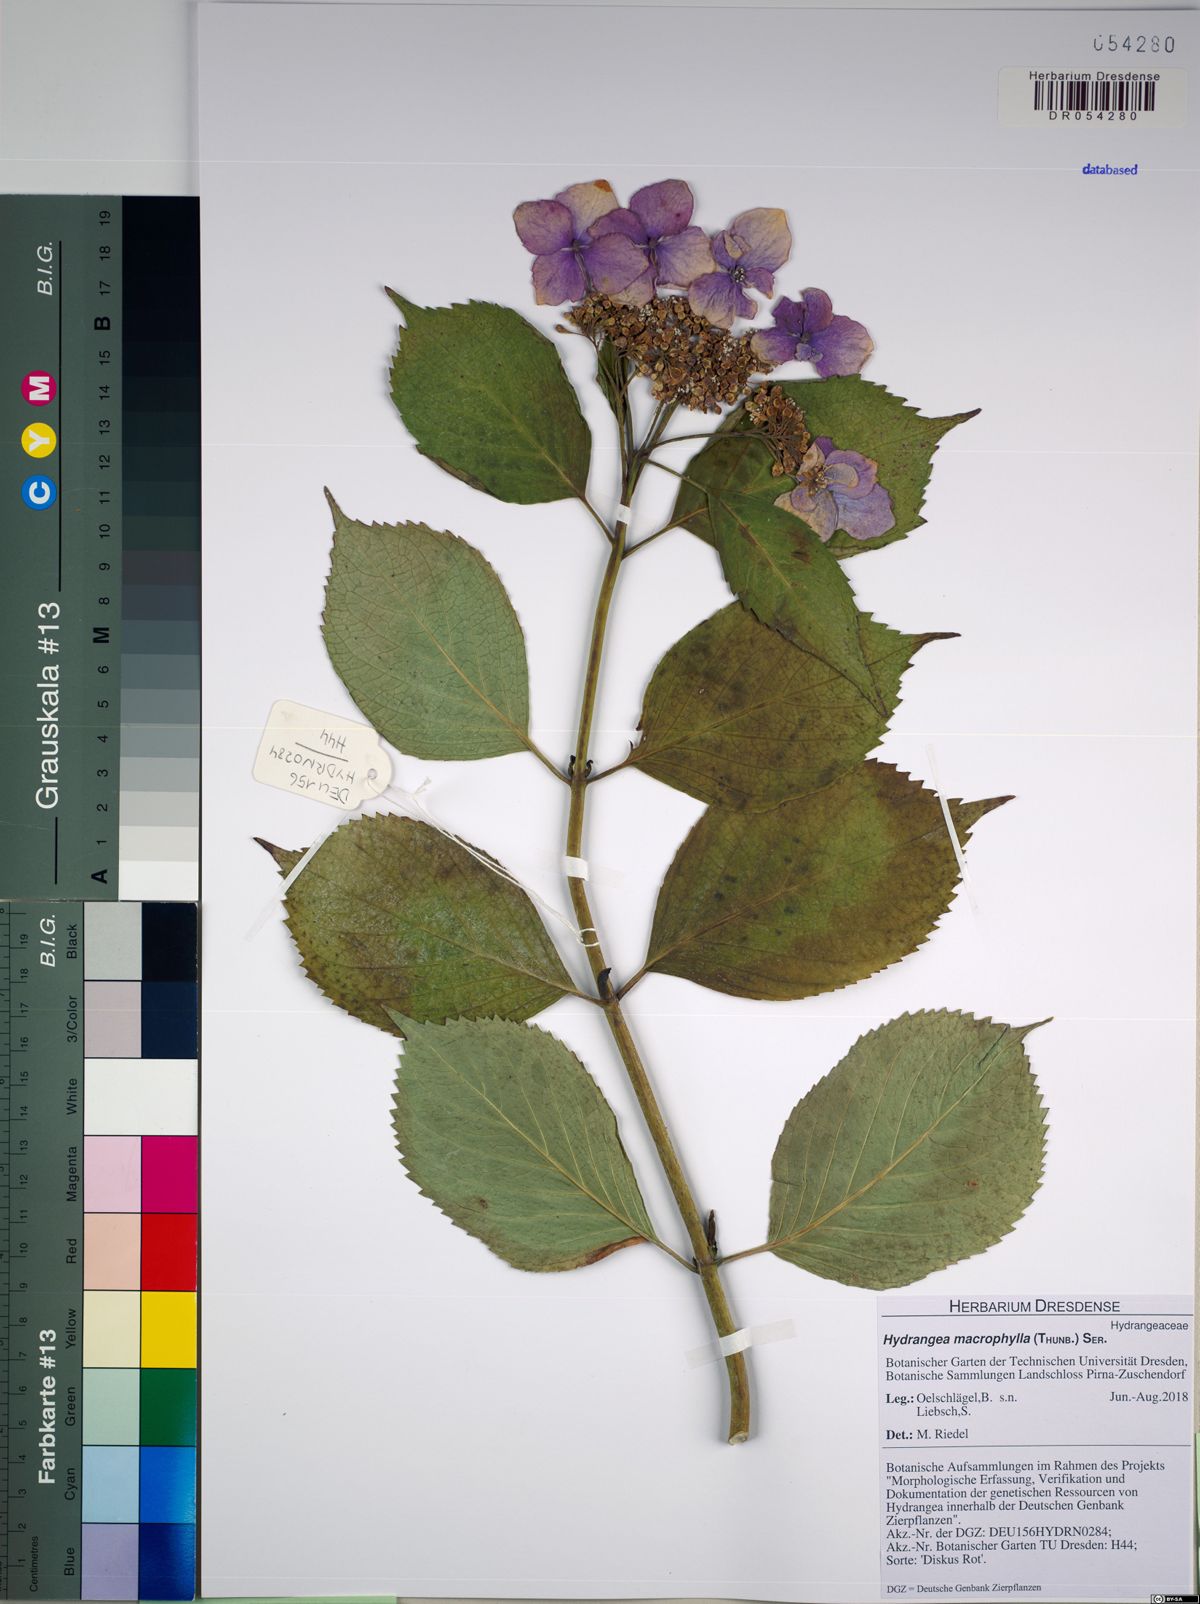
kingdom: Plantae
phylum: Tracheophyta
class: Magnoliopsida
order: Cornales
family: Hydrangeaceae
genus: Hydrangea
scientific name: Hydrangea macrophylla
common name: Hydrangea
